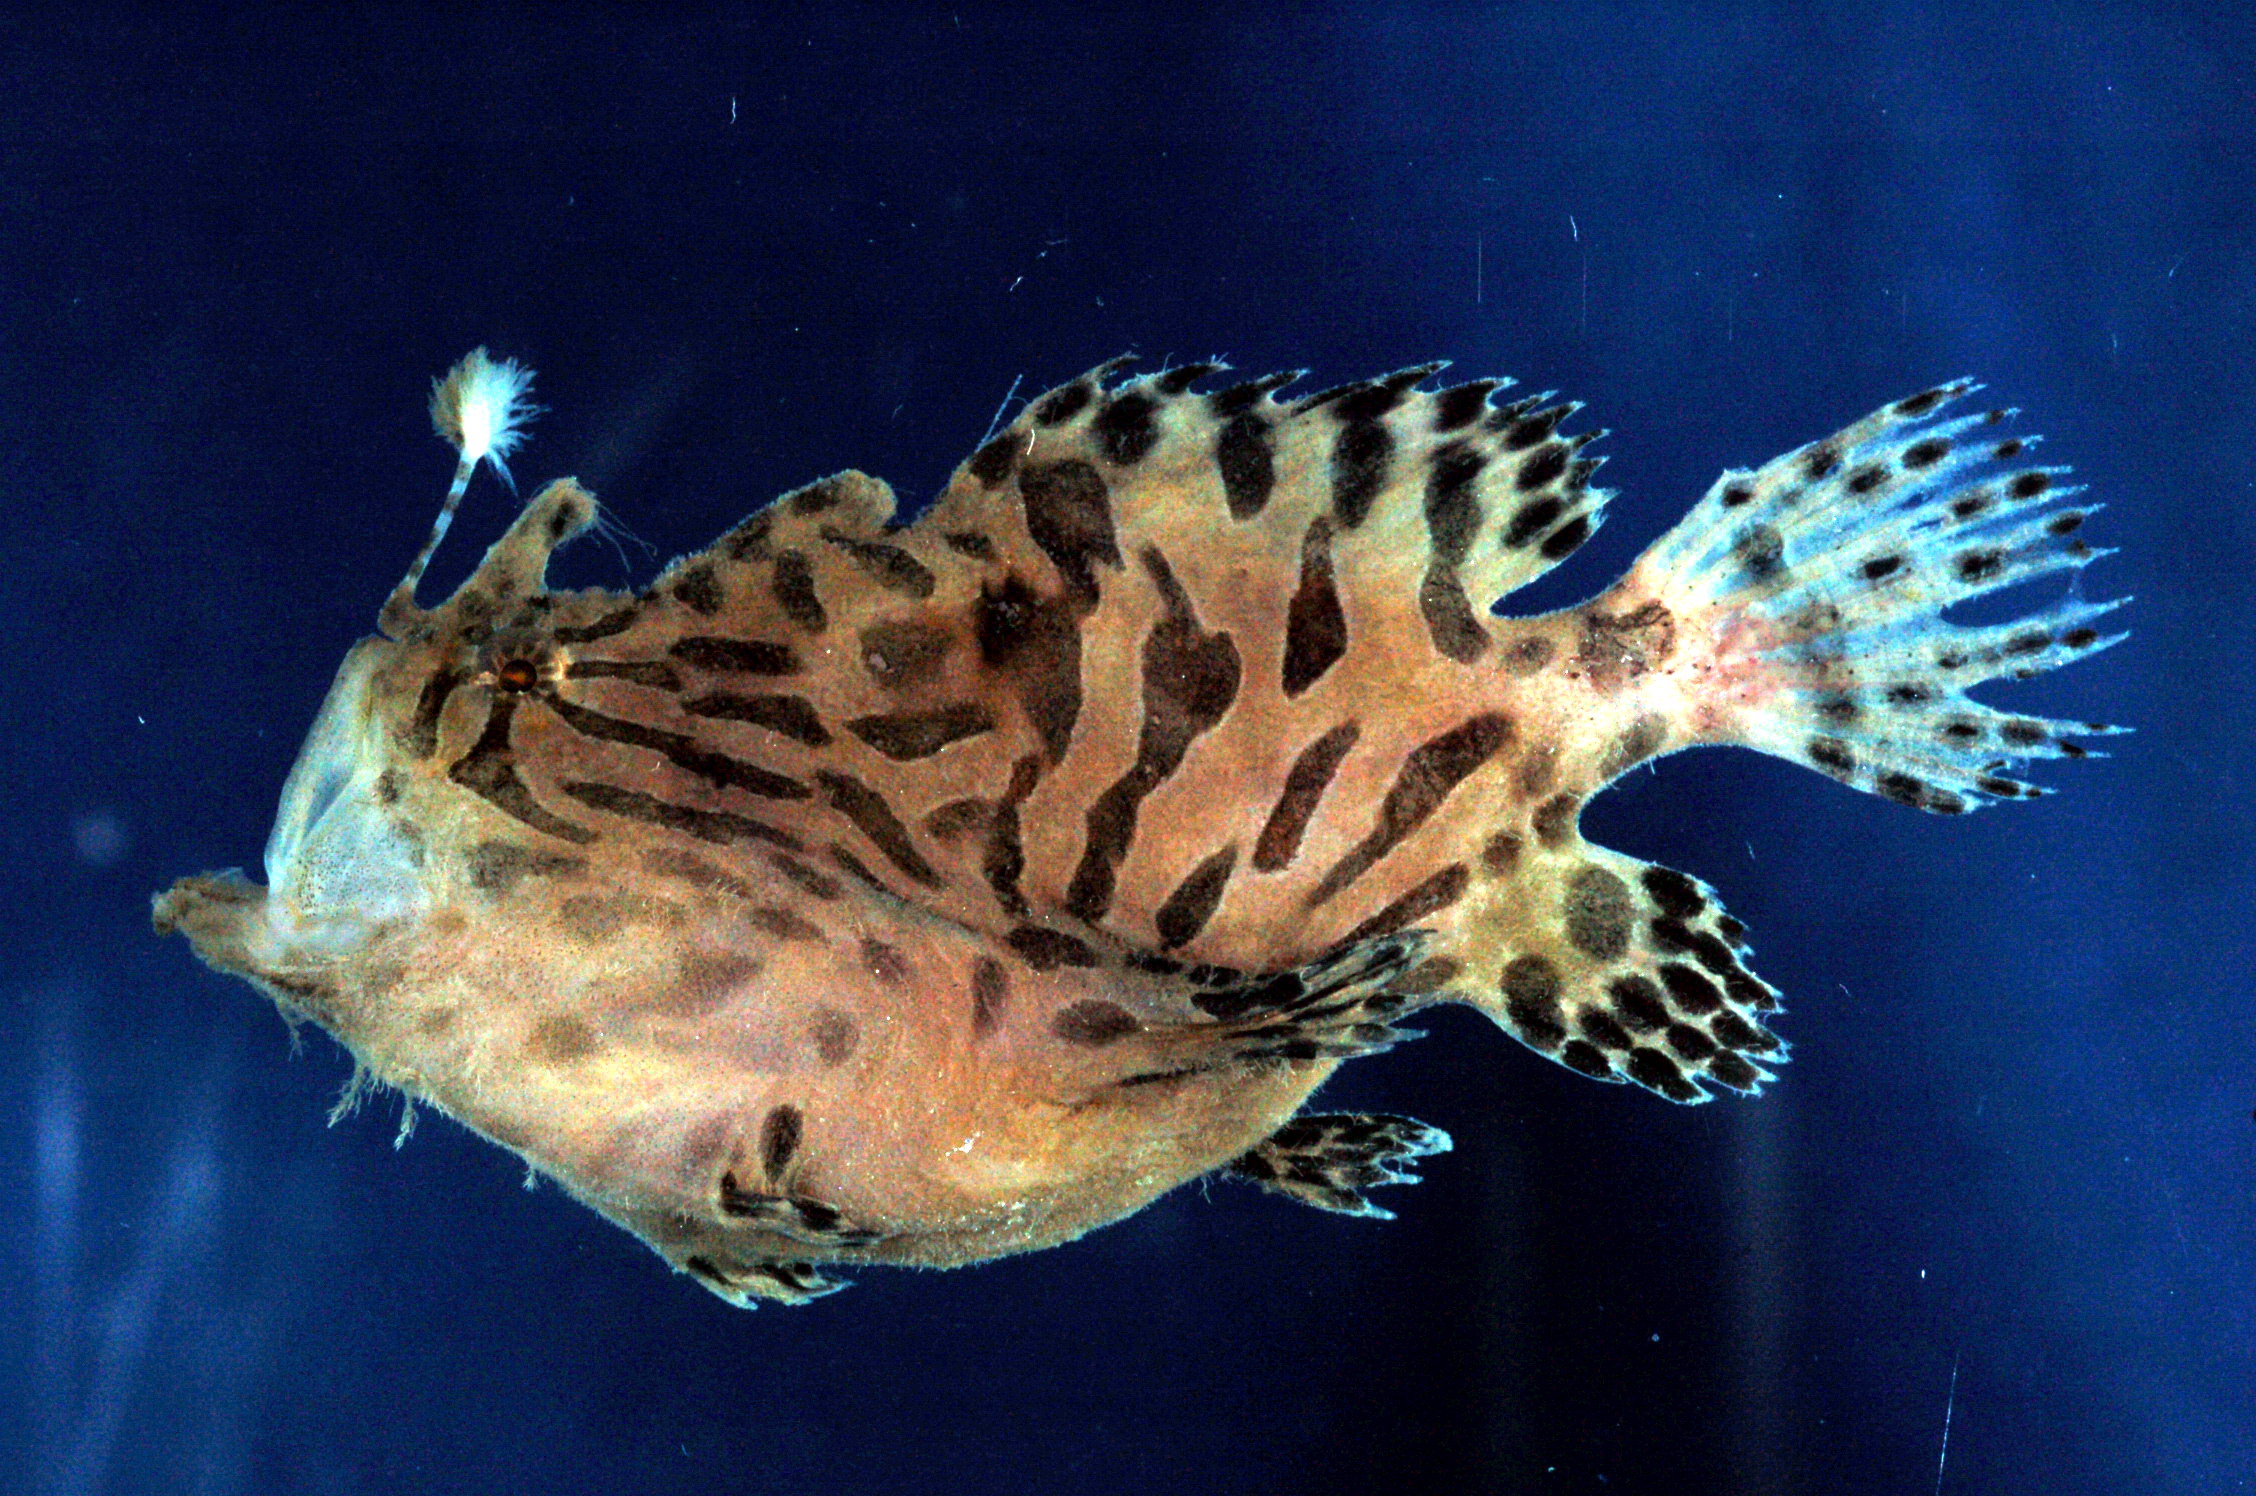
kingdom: Animalia
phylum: Chordata
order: Lophiiformes
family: Antennariidae
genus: Antennarius
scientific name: Antennarius hispidus
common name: Shaggy angler
